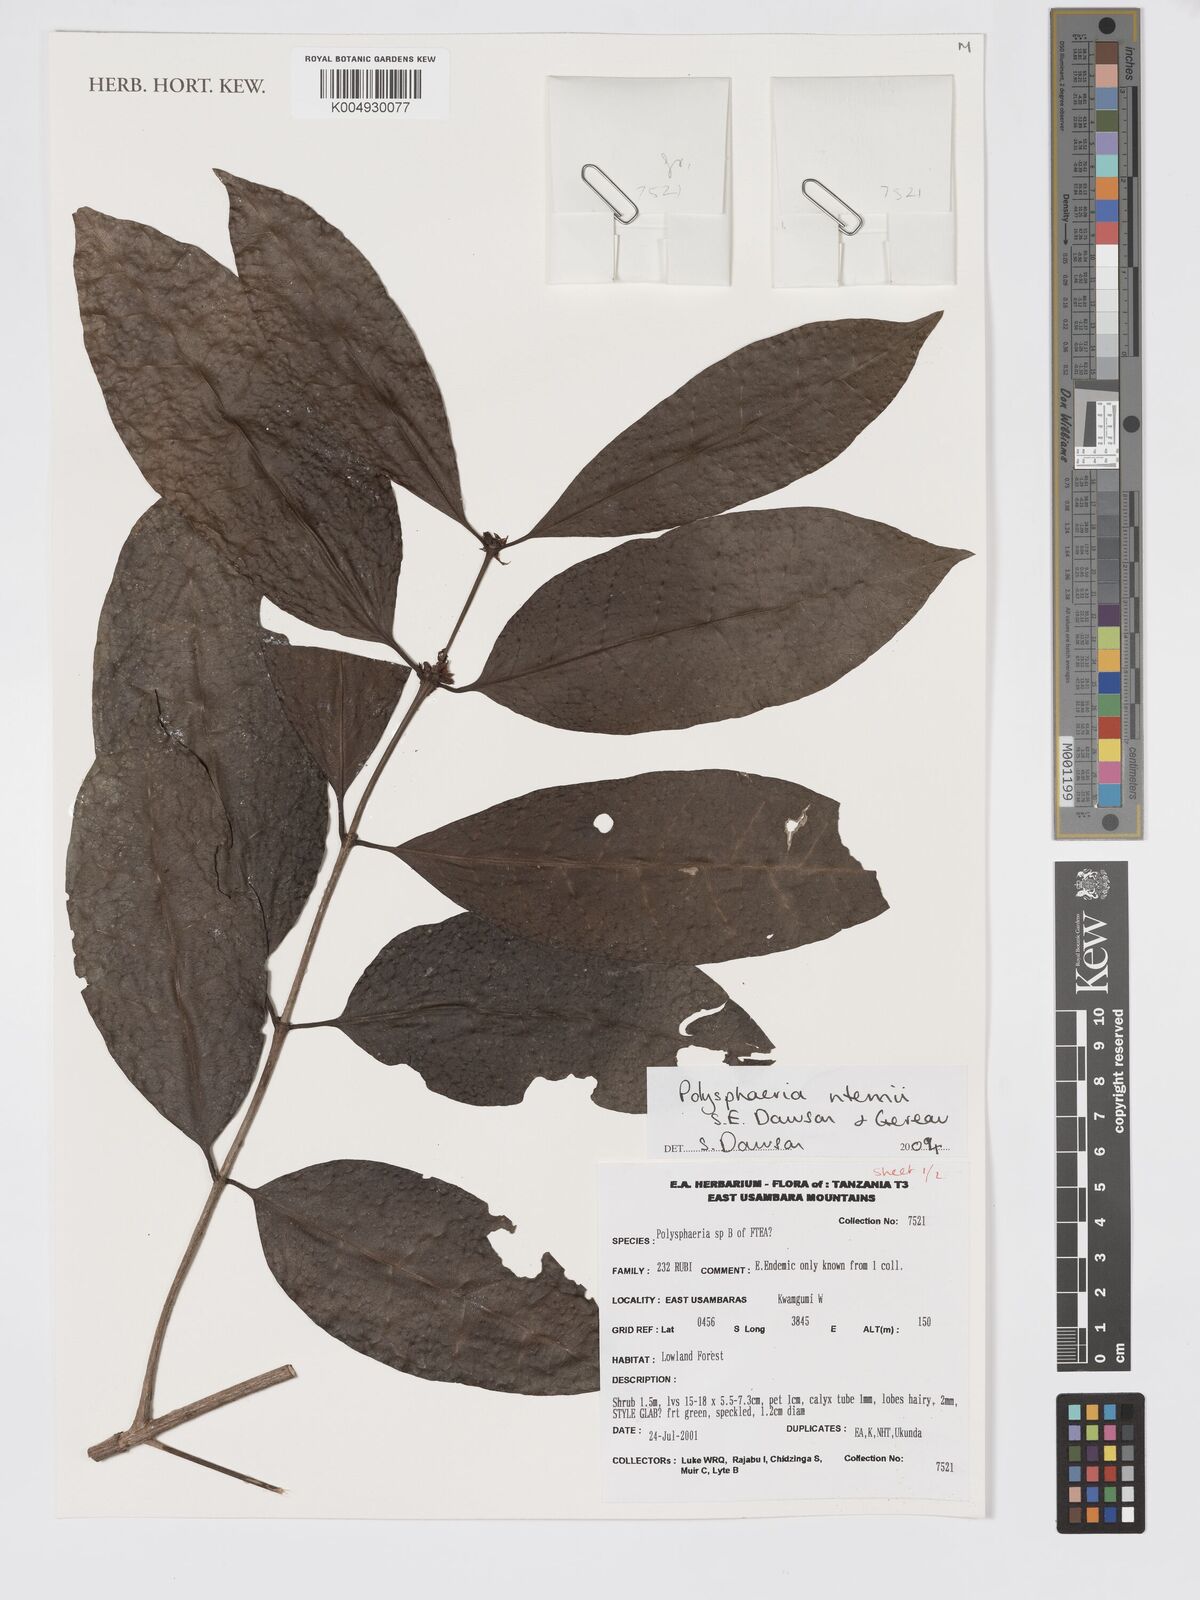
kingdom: Plantae
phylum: Tracheophyta
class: Magnoliopsida
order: Gentianales
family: Rubiaceae
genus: Polysphaeria
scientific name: Polysphaeria ntemii
